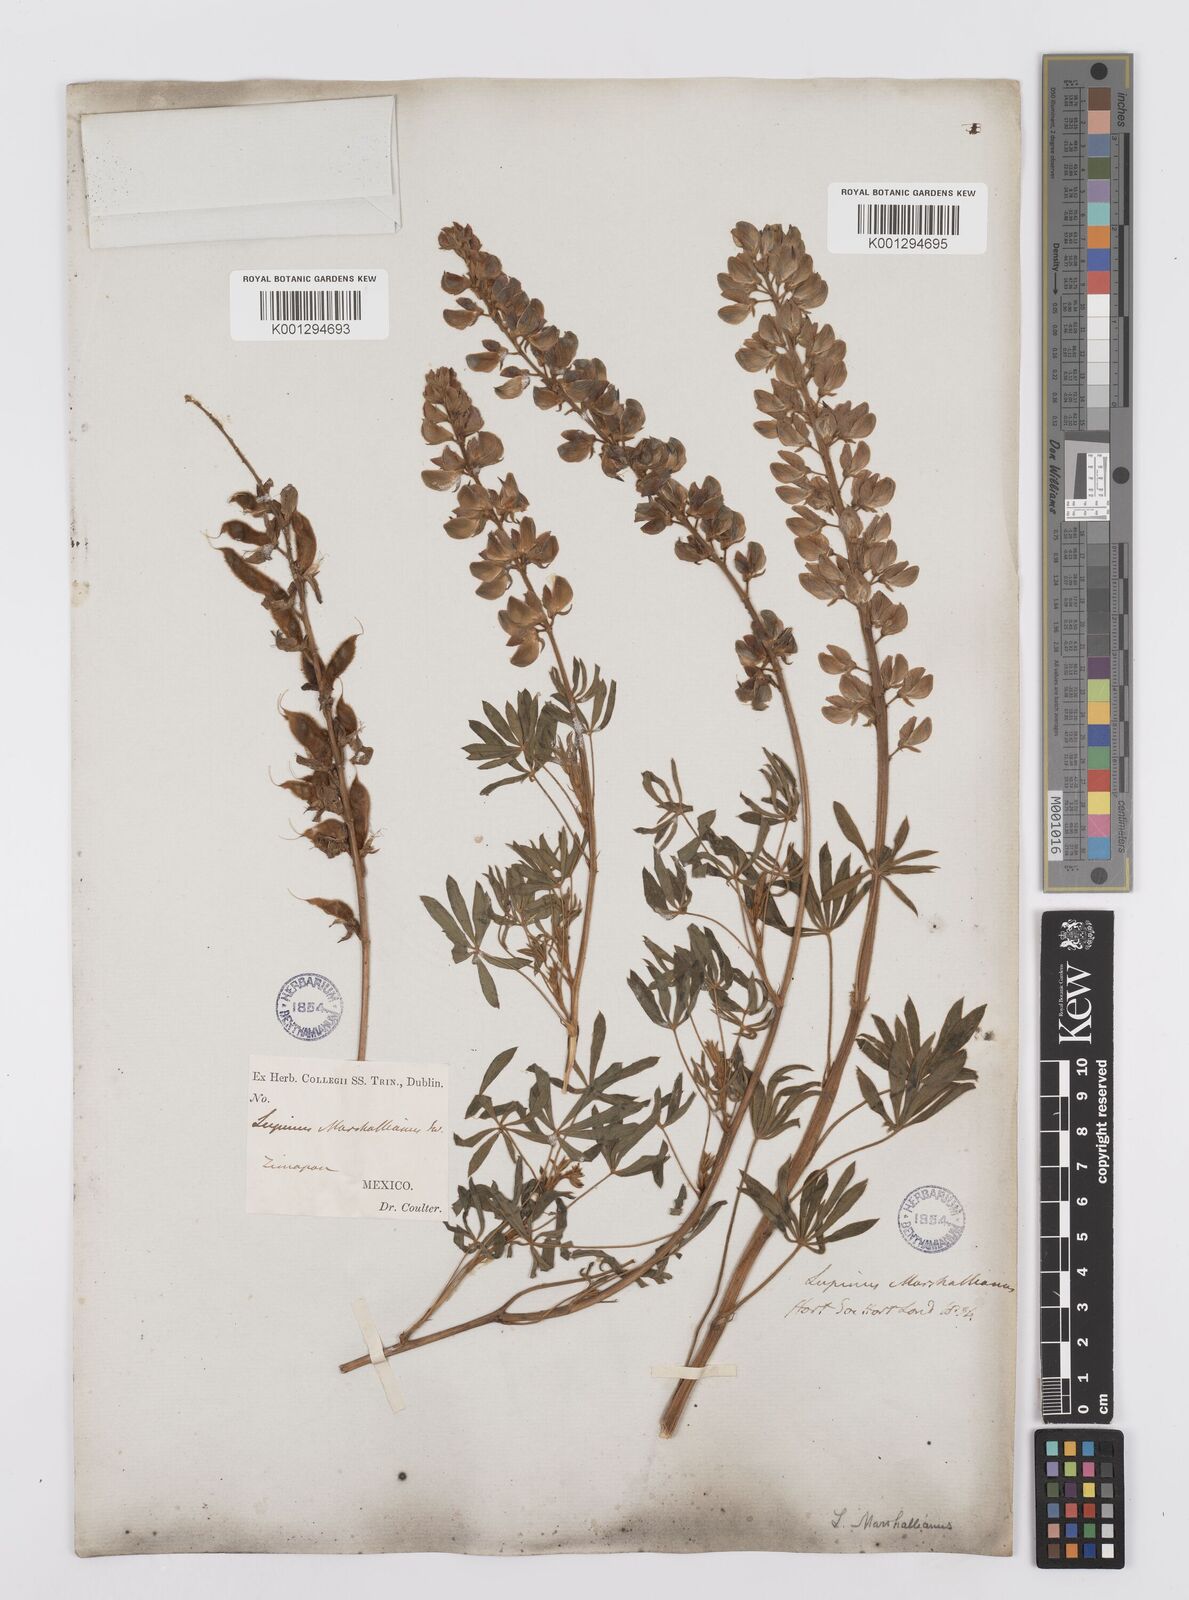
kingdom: Plantae
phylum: Tracheophyta
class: Magnoliopsida
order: Fabales
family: Fabaceae
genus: Lupinus
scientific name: Lupinus marschallianus
